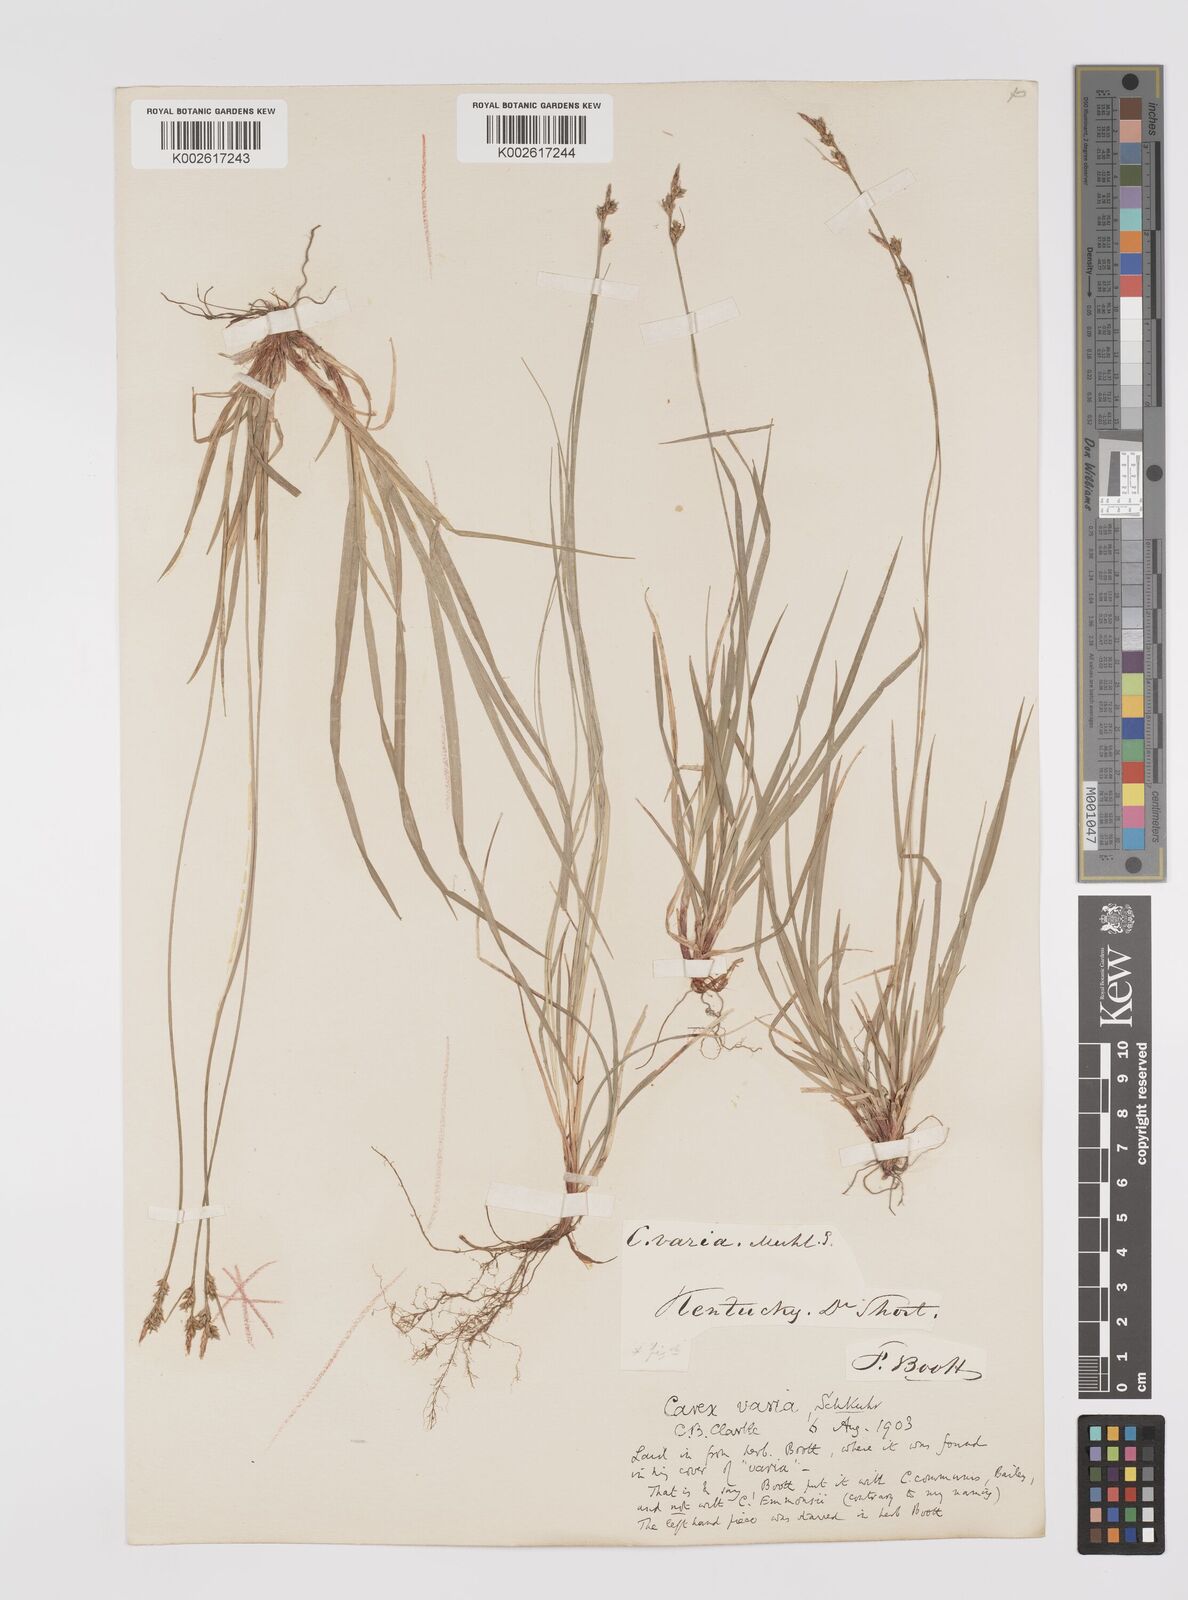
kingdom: Plantae
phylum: Tracheophyta
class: Liliopsida
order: Poales
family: Cyperaceae
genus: Carex
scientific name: Carex albicans
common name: Bellow-beaked sedge
